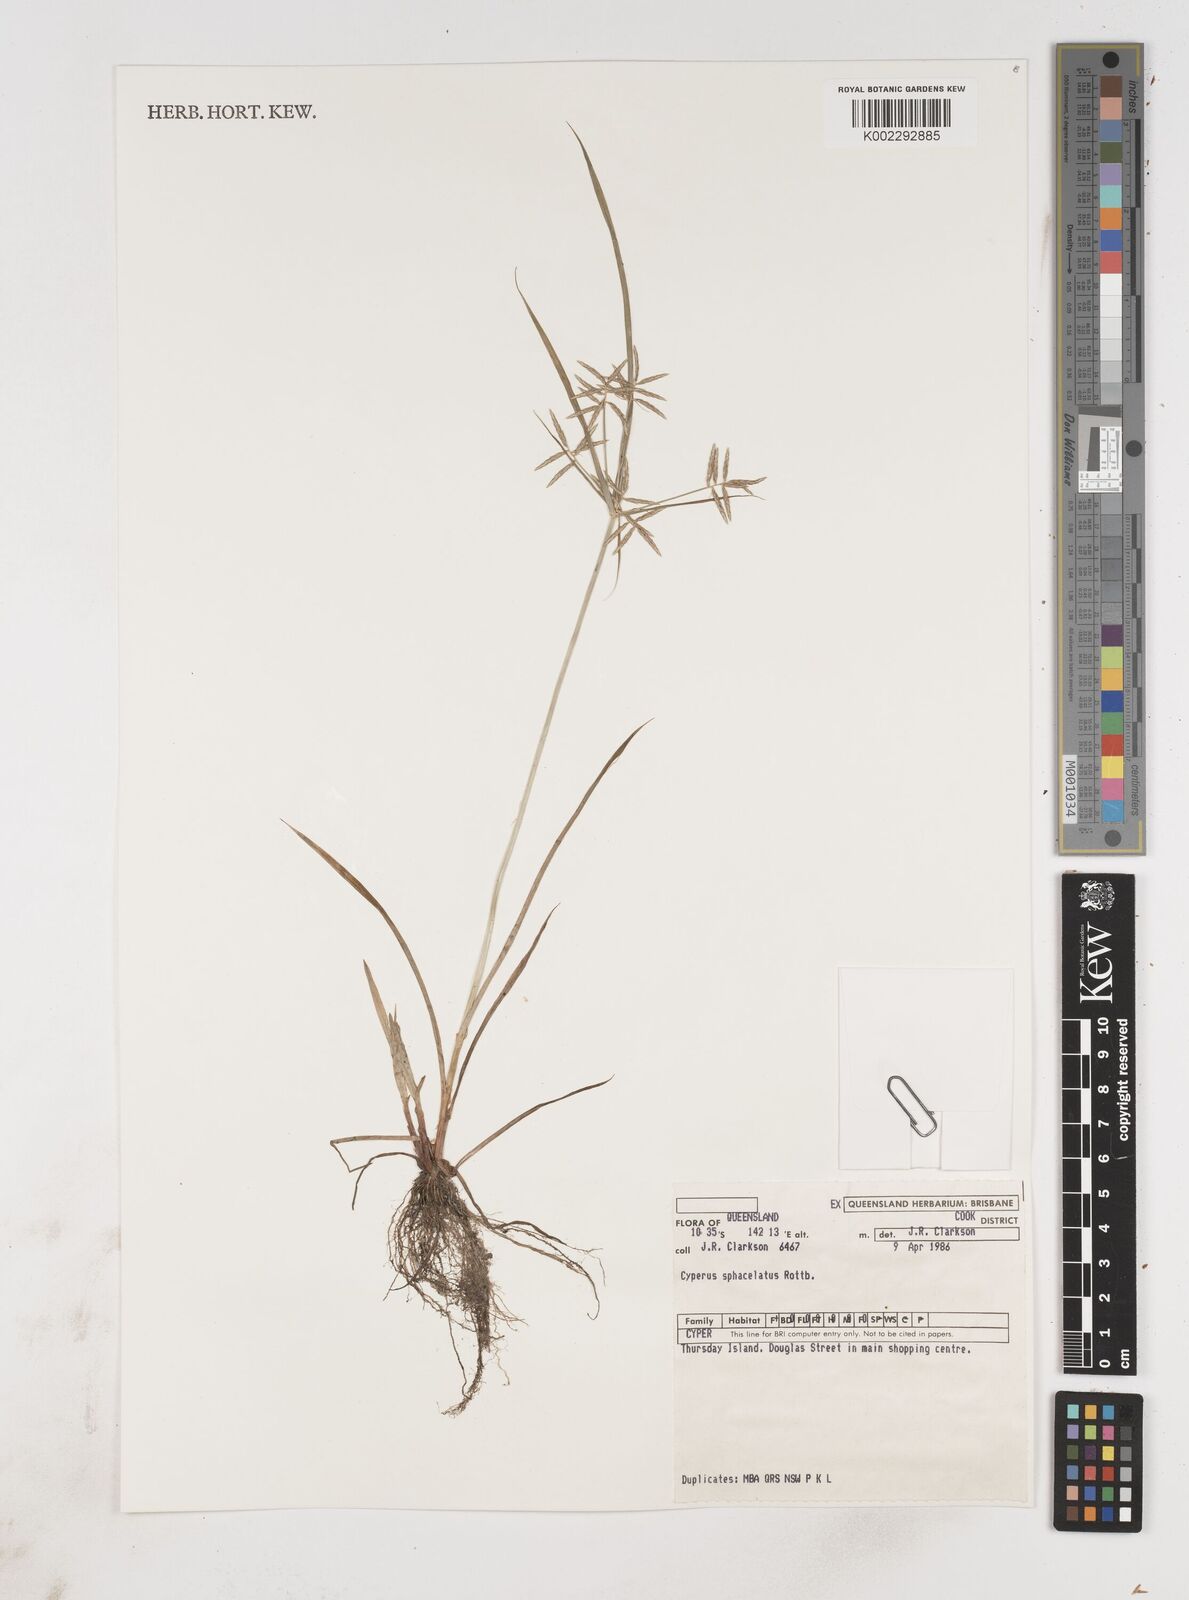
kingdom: Plantae
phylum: Tracheophyta
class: Liliopsida
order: Poales
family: Cyperaceae
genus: Cyperus
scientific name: Cyperus sphacelatus
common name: Roadside flatsedge
